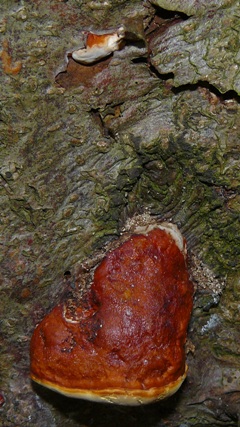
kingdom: Fungi
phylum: Basidiomycota
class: Agaricomycetes
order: Polyporales
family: Fomitopsidaceae
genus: Fomitopsis
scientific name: Fomitopsis pinicola
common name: randbæltet hovporesvamp
